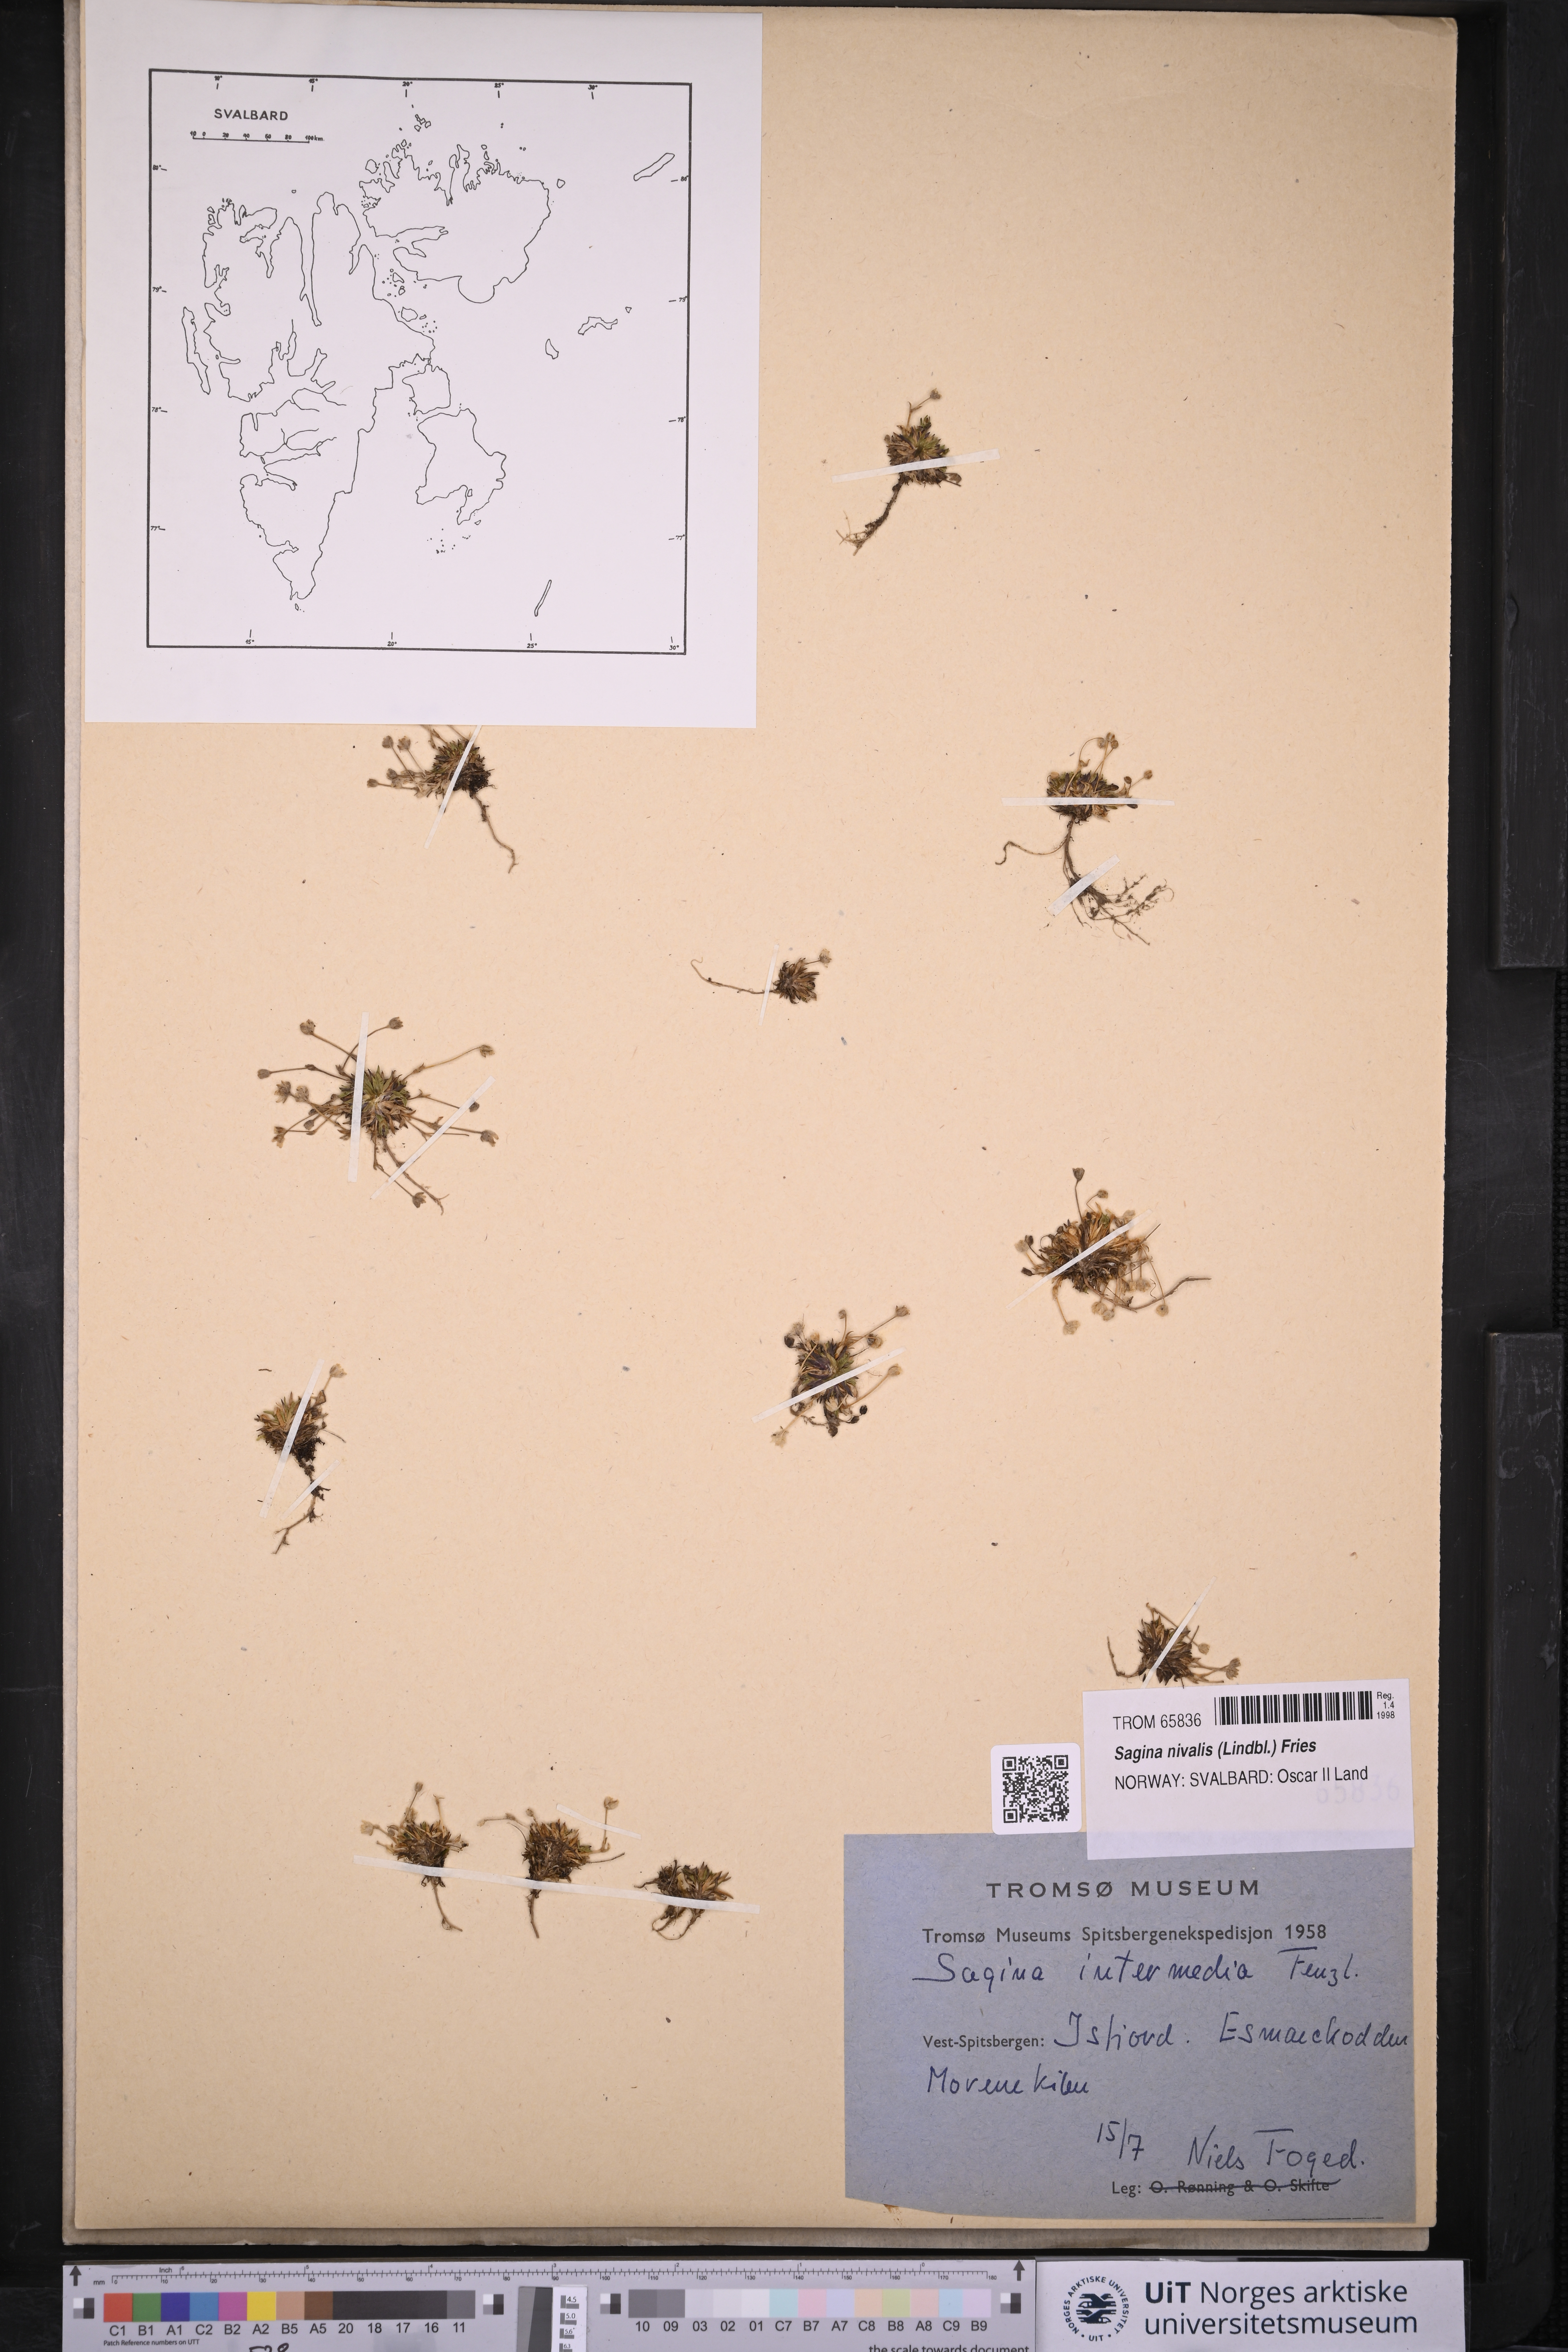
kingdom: Plantae
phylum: Tracheophyta
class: Magnoliopsida
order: Caryophyllales
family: Caryophyllaceae
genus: Sagina
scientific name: Sagina nivalis
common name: Snow pearlwort
